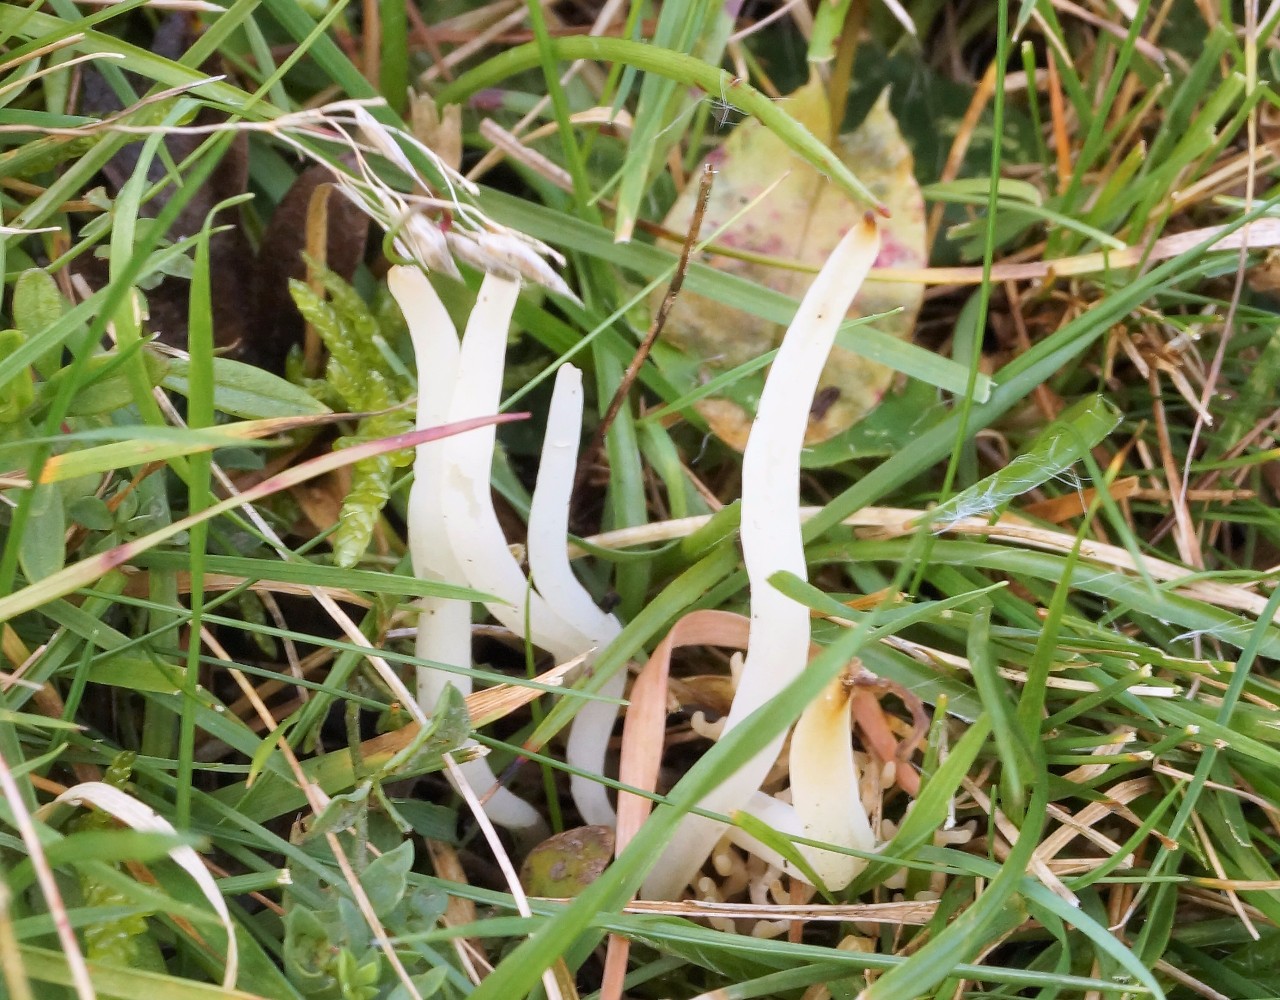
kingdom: Fungi
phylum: Basidiomycota
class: Agaricomycetes
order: Agaricales
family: Clavariaceae
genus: Clavaria
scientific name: Clavaria
